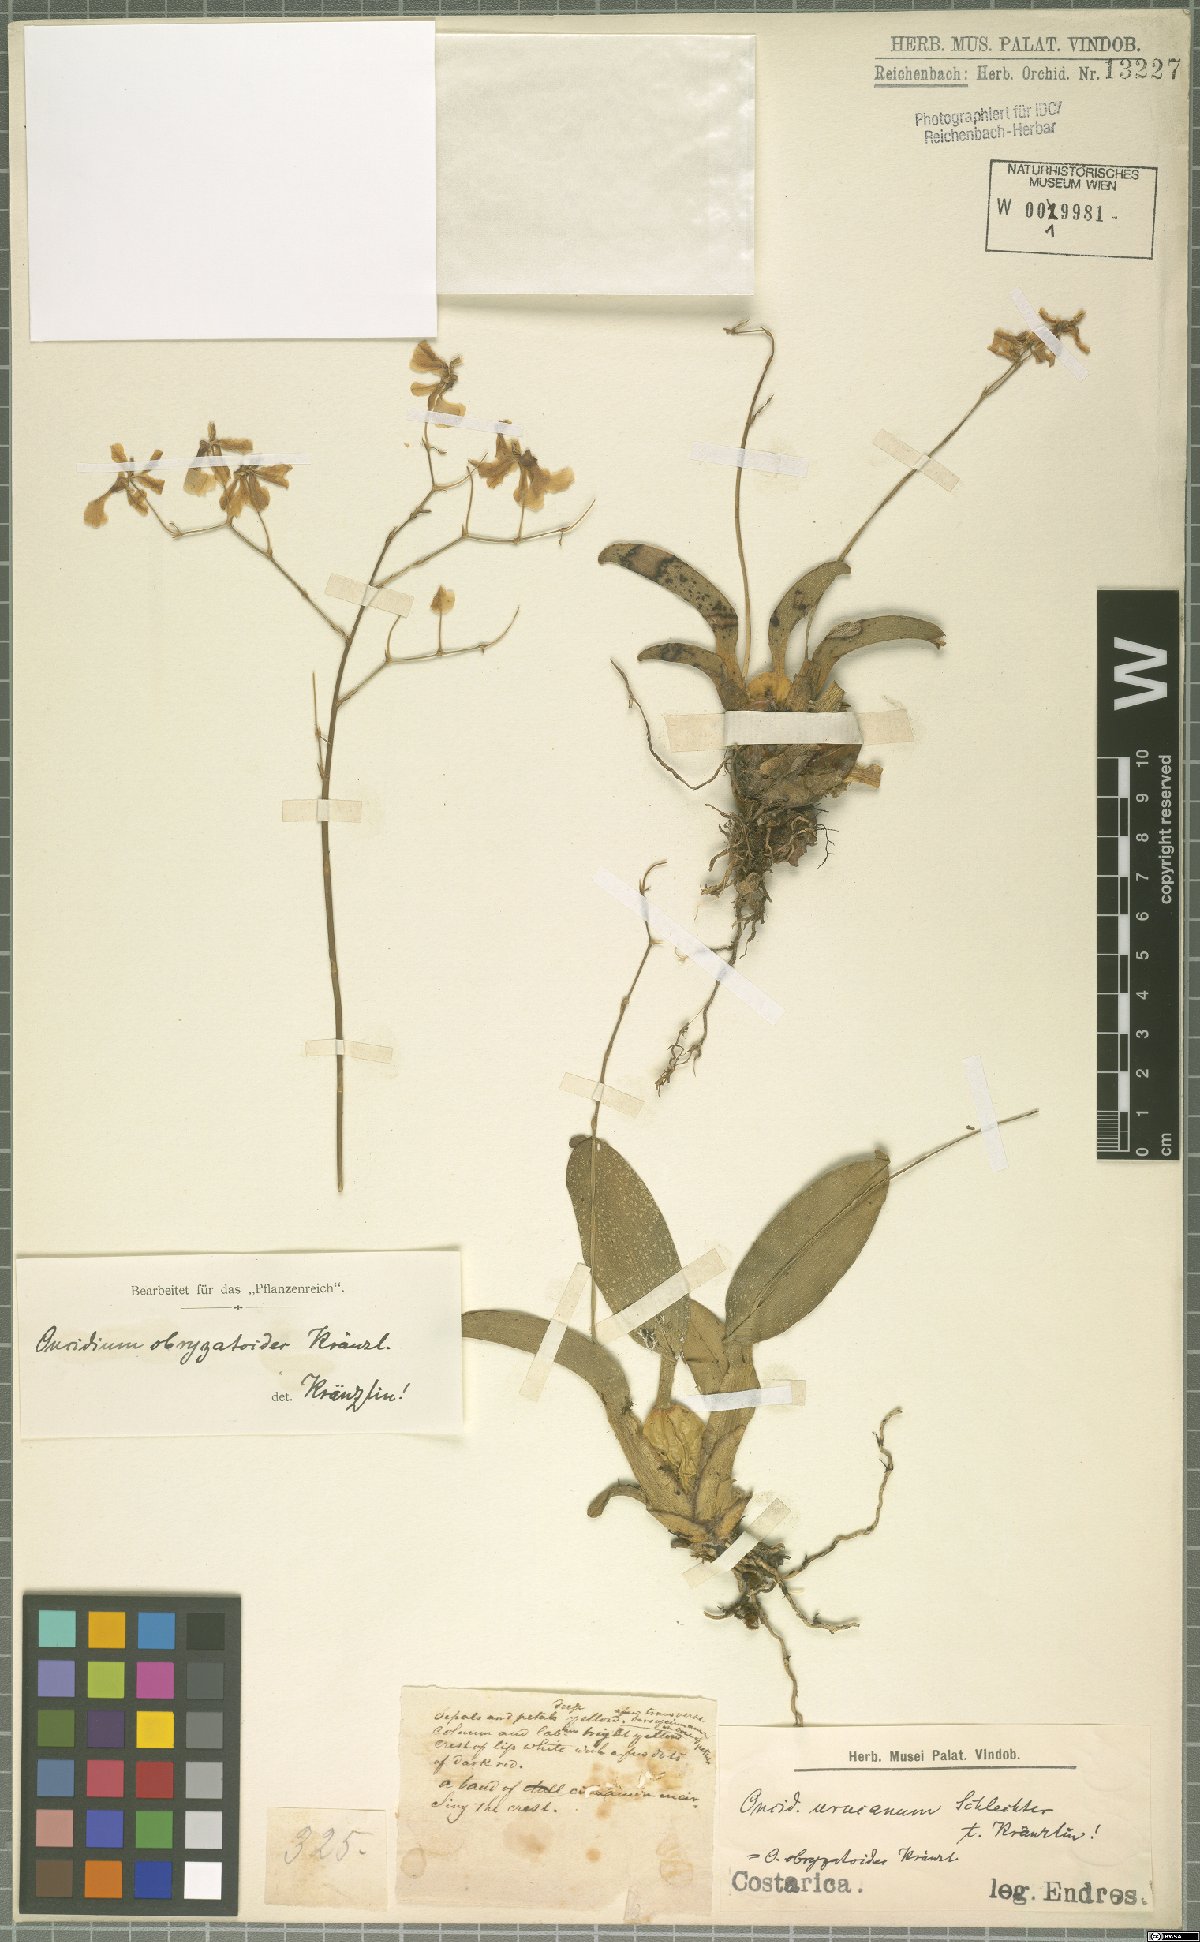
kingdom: Plantae
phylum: Tracheophyta
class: Liliopsida
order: Asparagales
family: Orchidaceae
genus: Oncidium
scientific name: Oncidium obryzatoides
